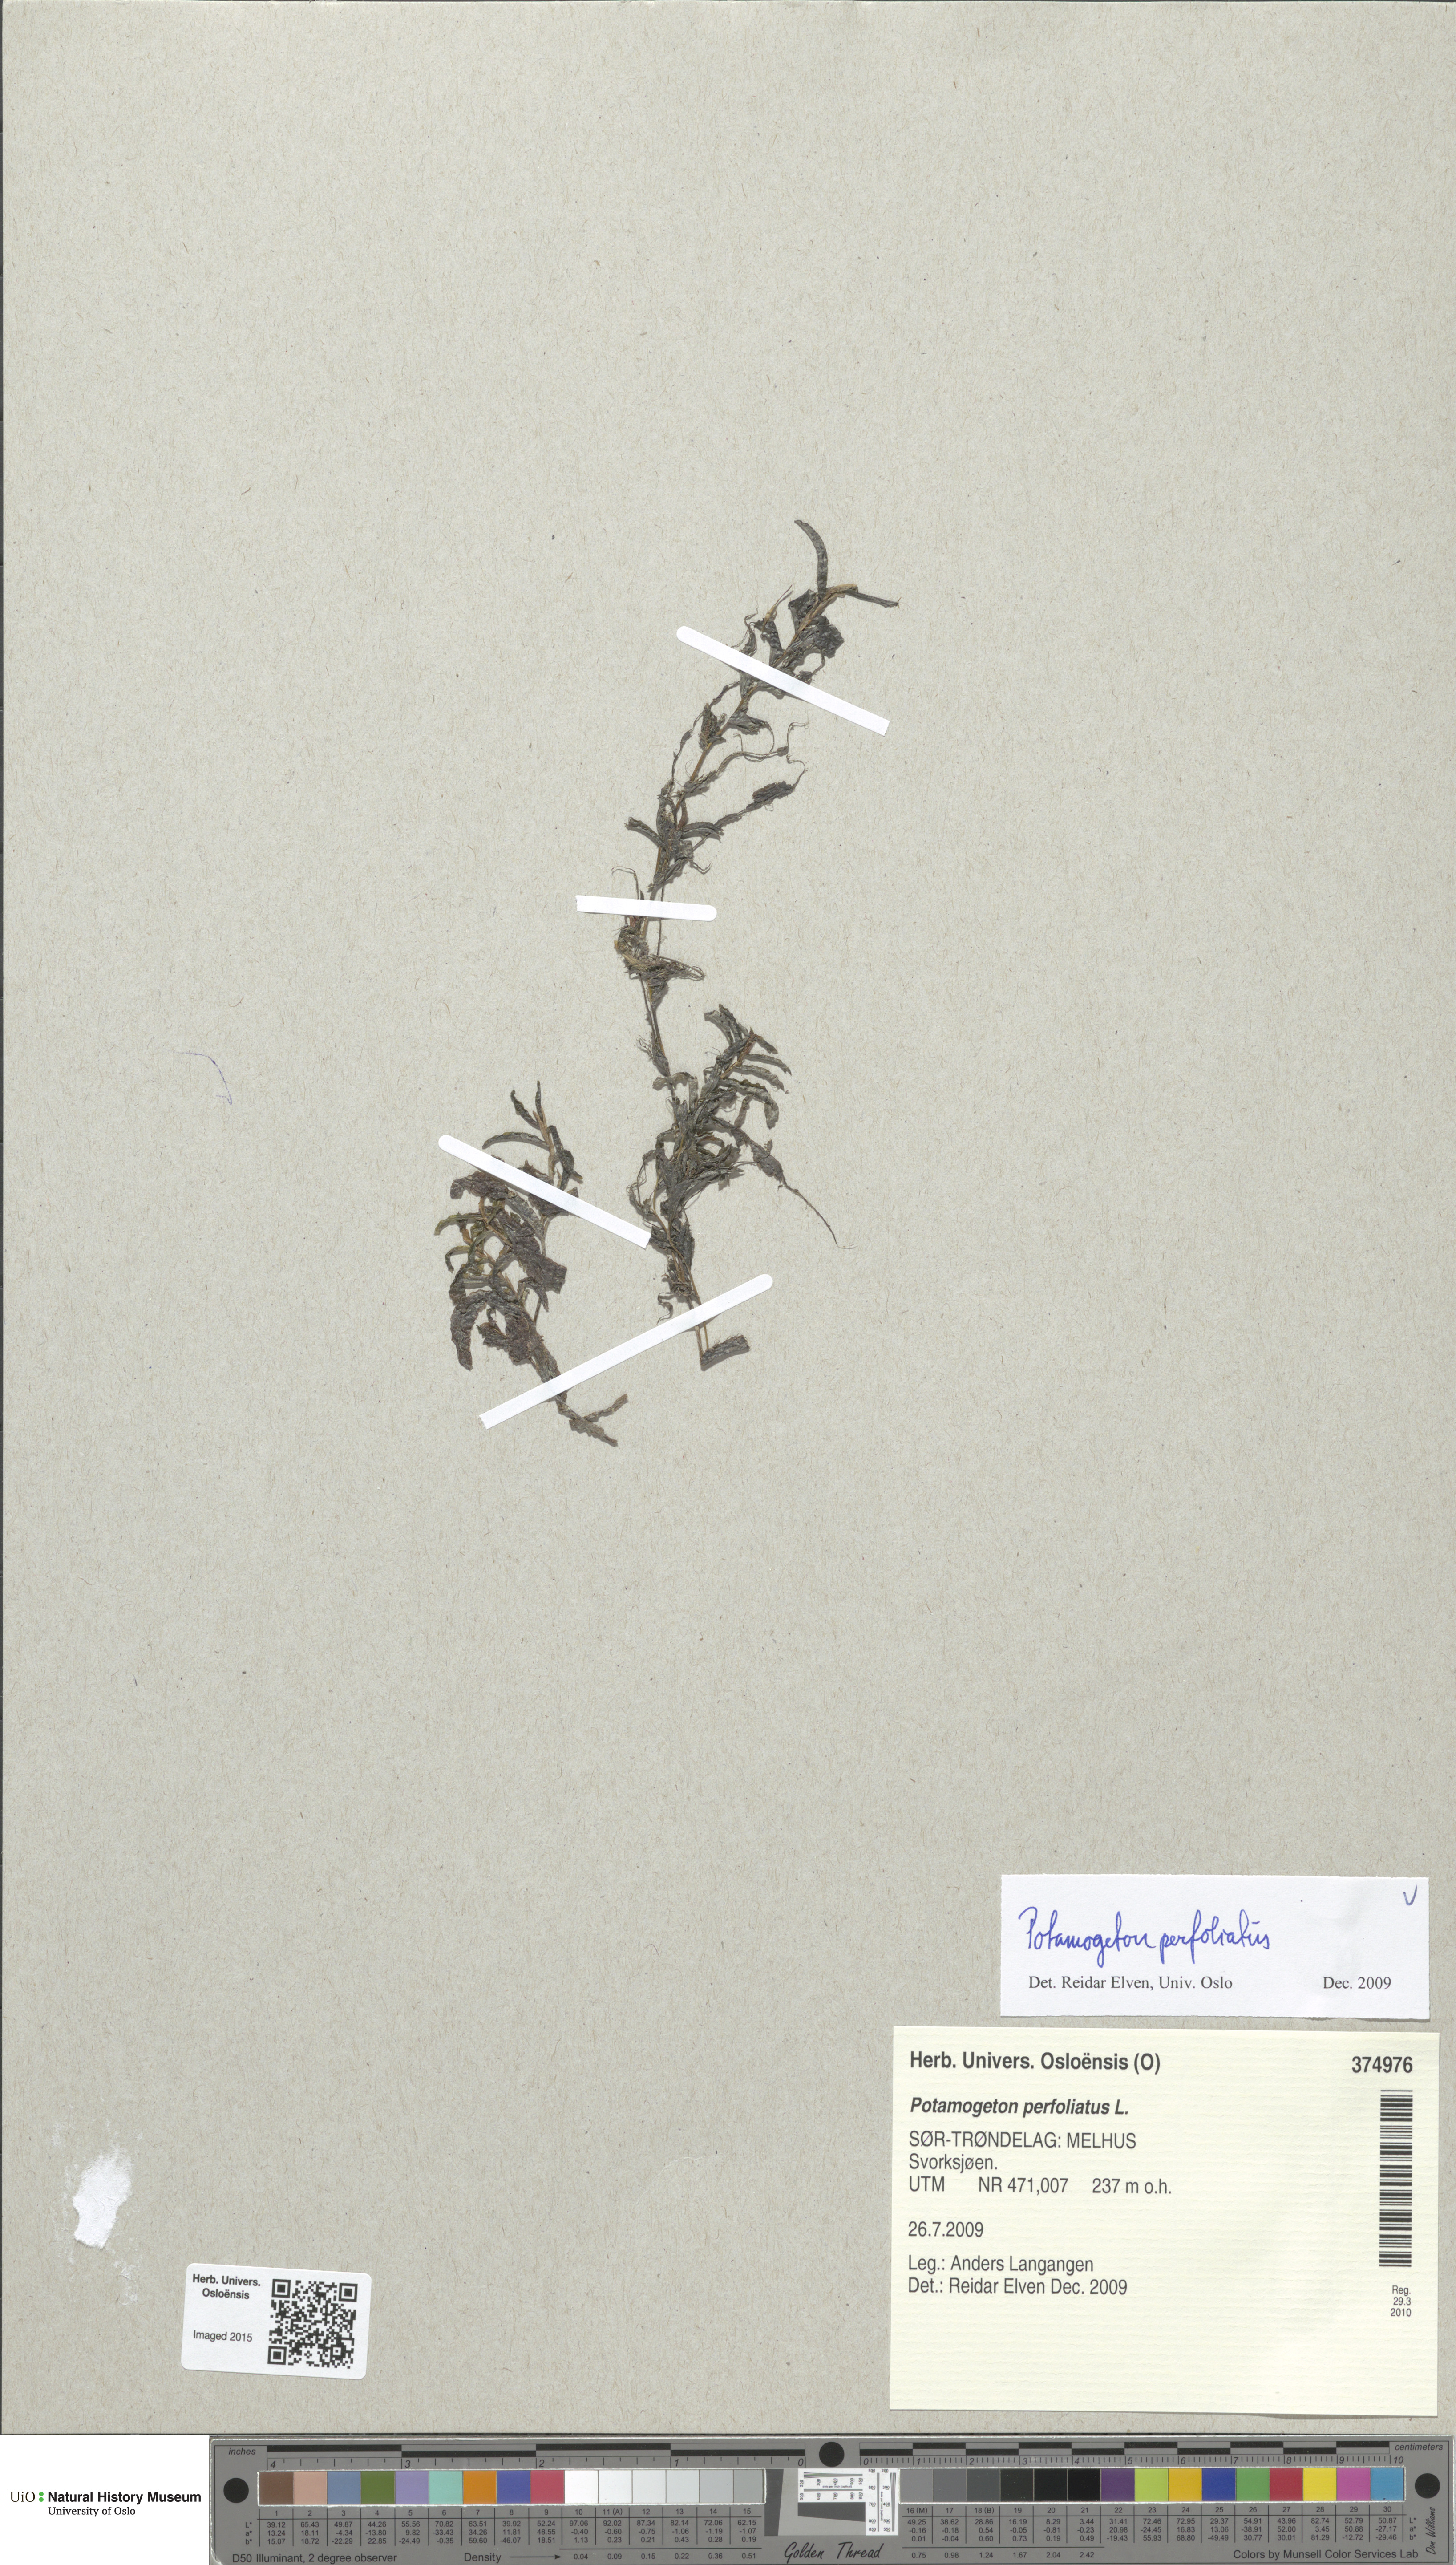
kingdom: Plantae
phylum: Tracheophyta
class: Liliopsida
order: Alismatales
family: Potamogetonaceae
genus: Potamogeton
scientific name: Potamogeton gramineus
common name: Various-leaved pondweed
